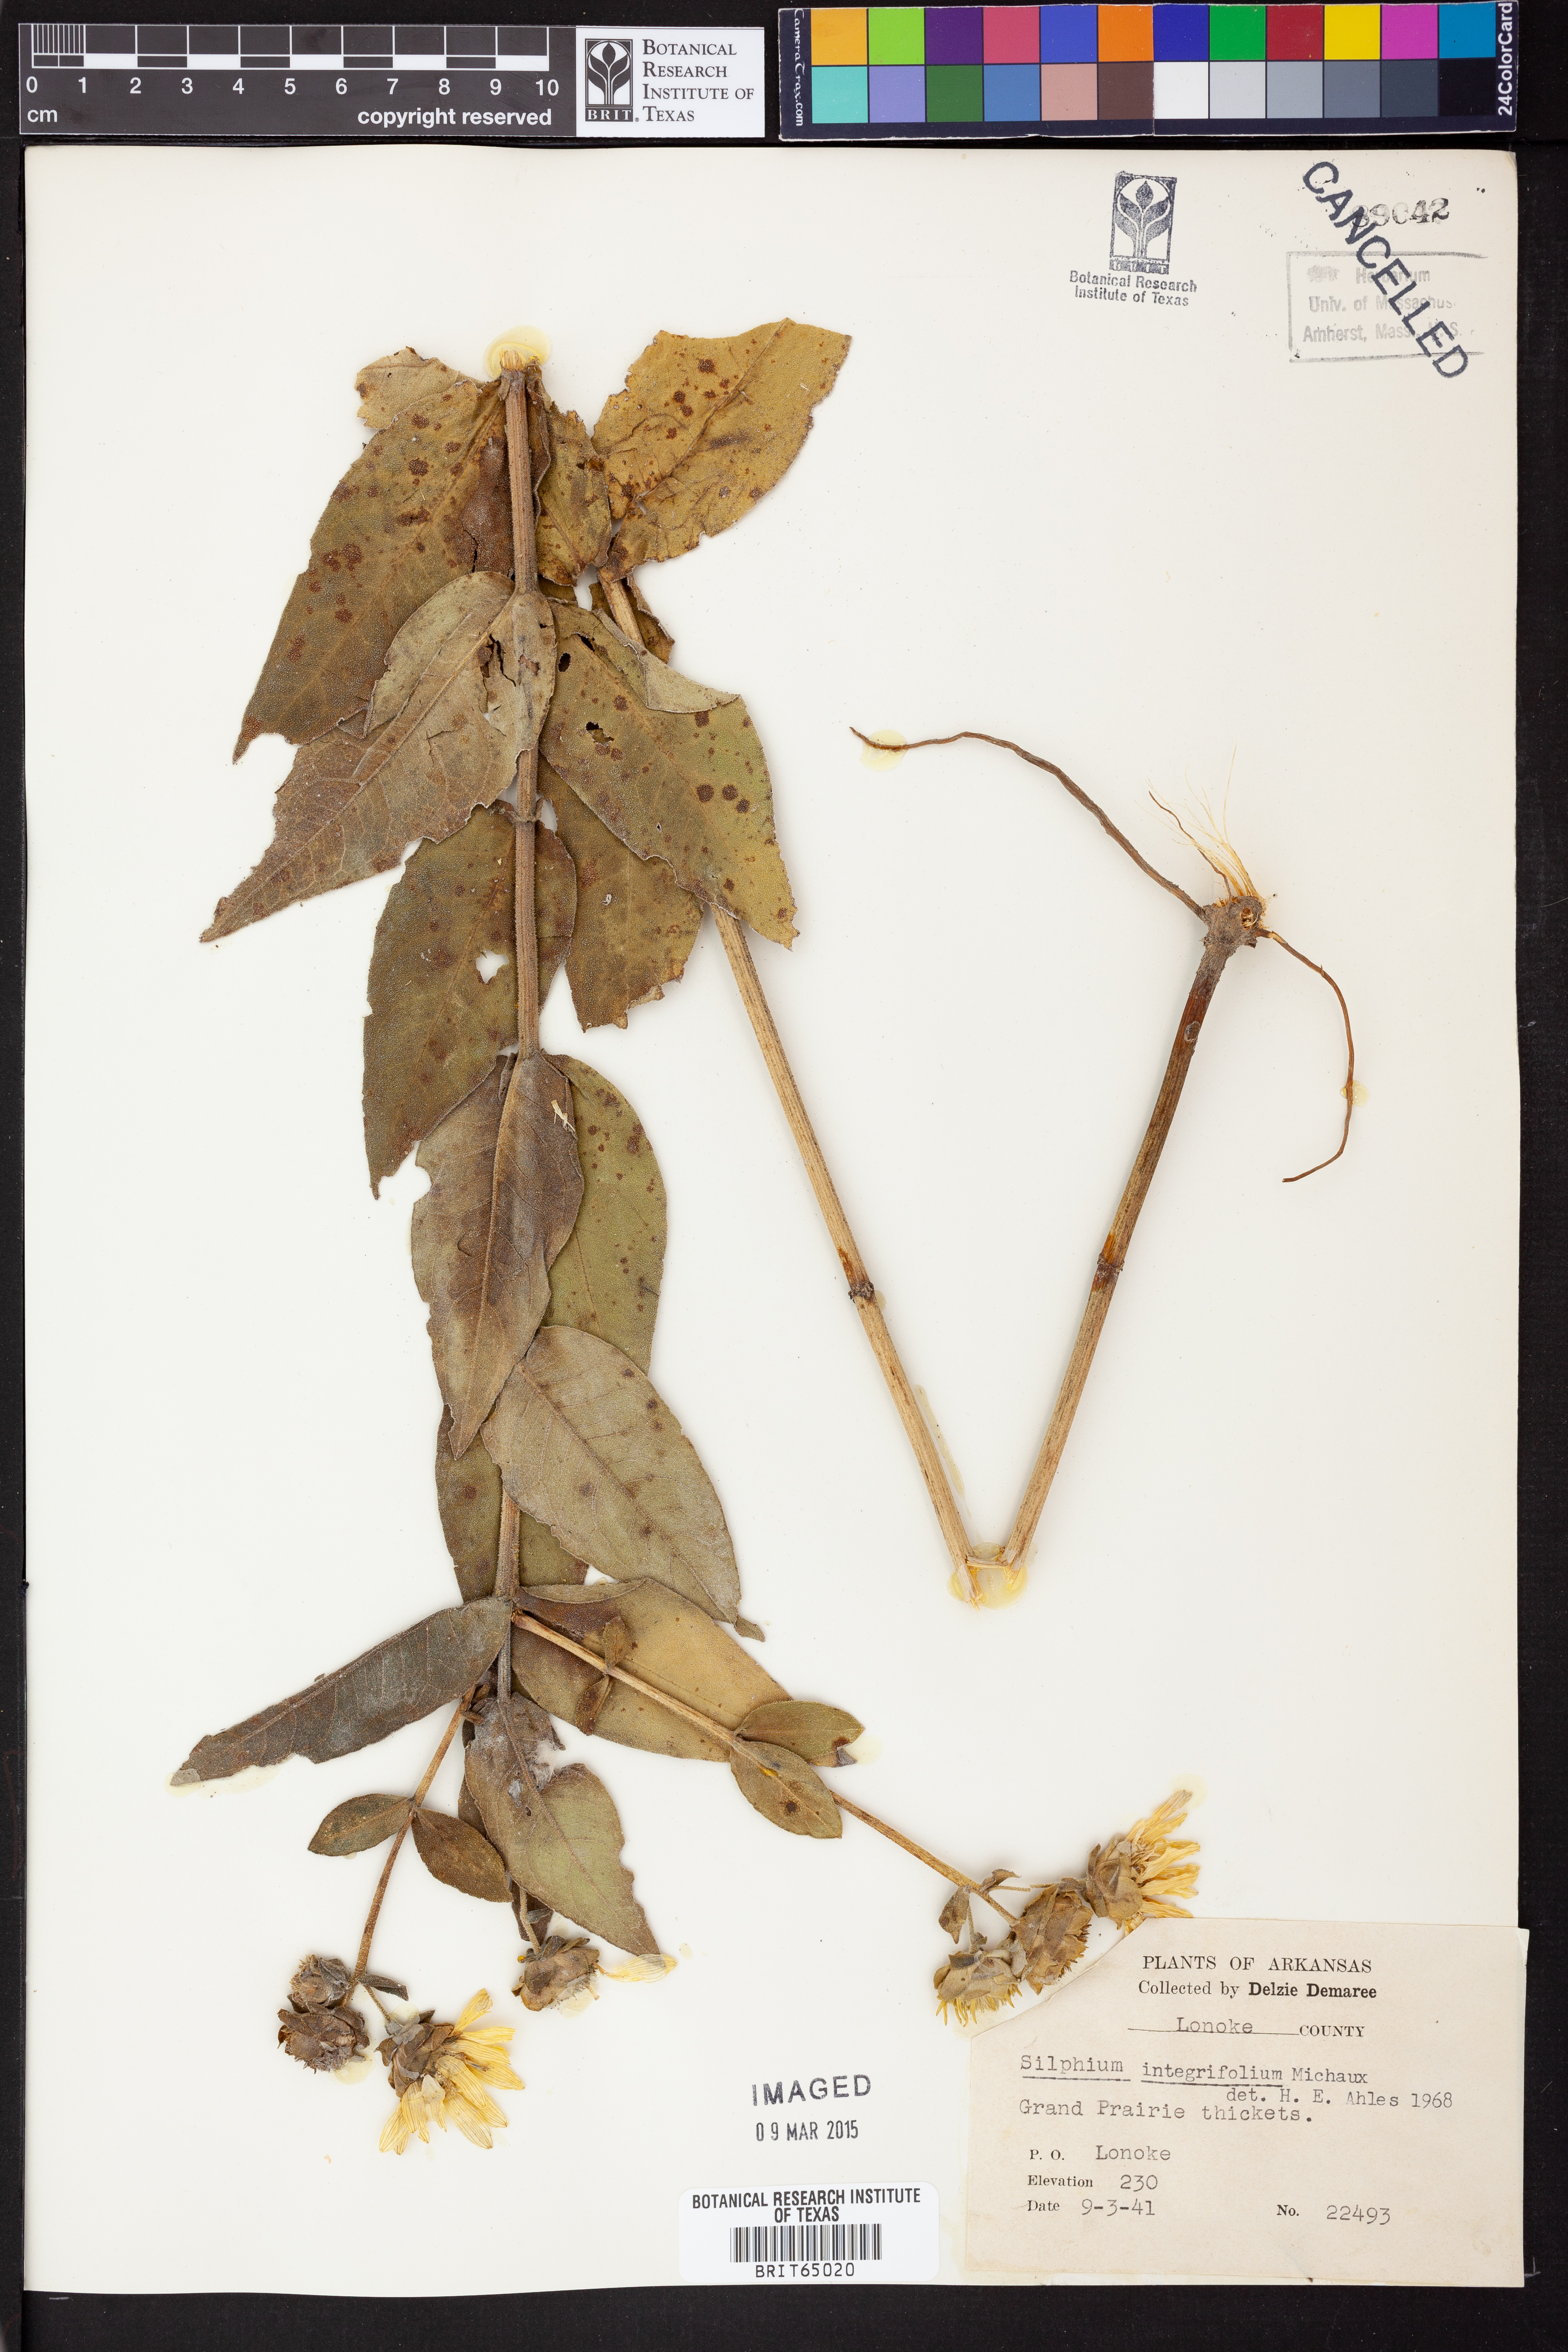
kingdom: Plantae
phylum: Tracheophyta
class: Magnoliopsida
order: Asterales
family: Asteraceae
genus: Silphium
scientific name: Silphium integrifolium
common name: Whole-leaf rosinweed
